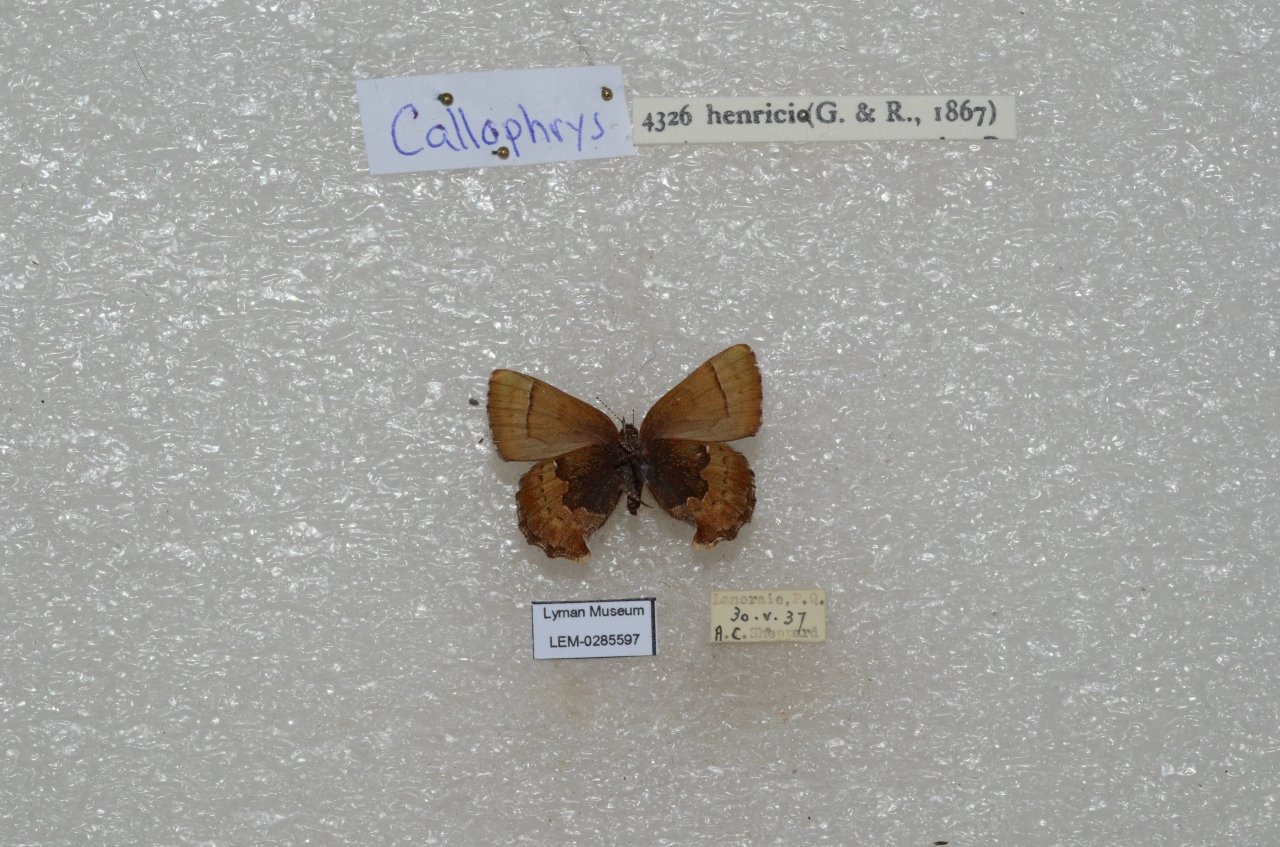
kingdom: Animalia
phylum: Arthropoda
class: Insecta
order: Lepidoptera
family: Lycaenidae
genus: Incisalia
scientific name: Incisalia henrici
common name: Henry's Elfin
